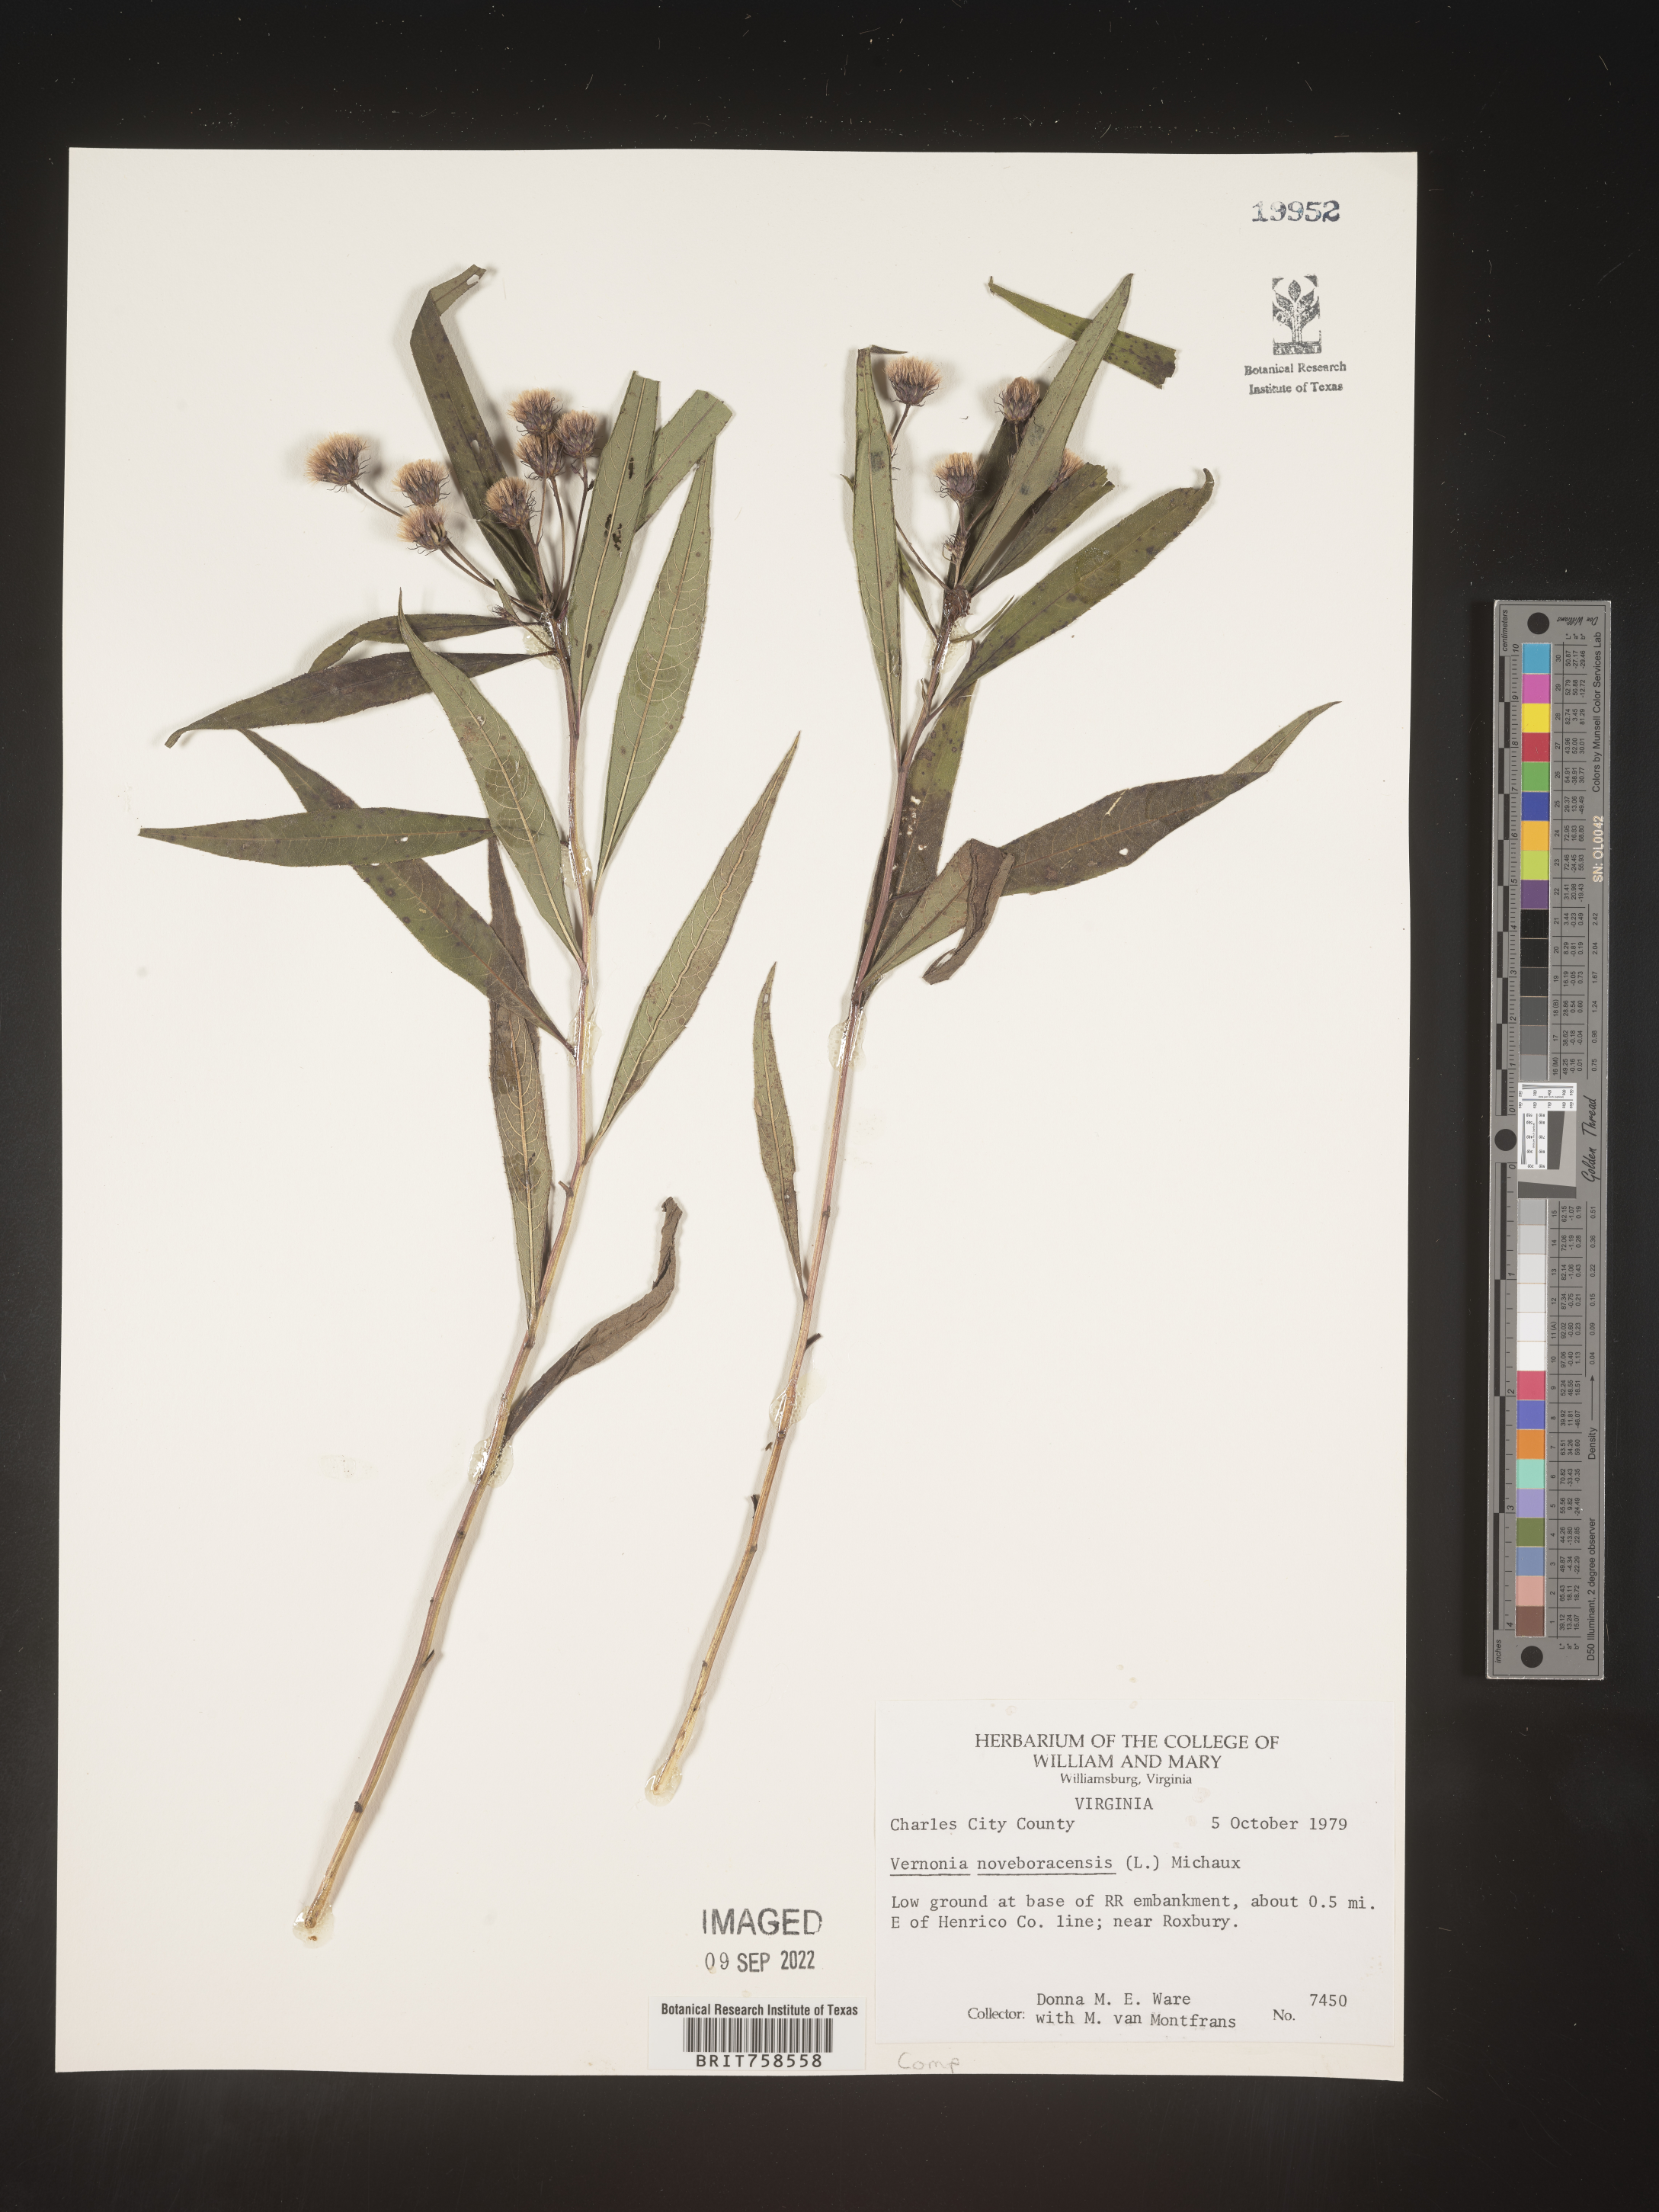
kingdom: Plantae
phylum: Tracheophyta
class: Magnoliopsida
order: Asterales
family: Asteraceae
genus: Vernonia
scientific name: Vernonia noveboracensis
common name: New york ironweed
